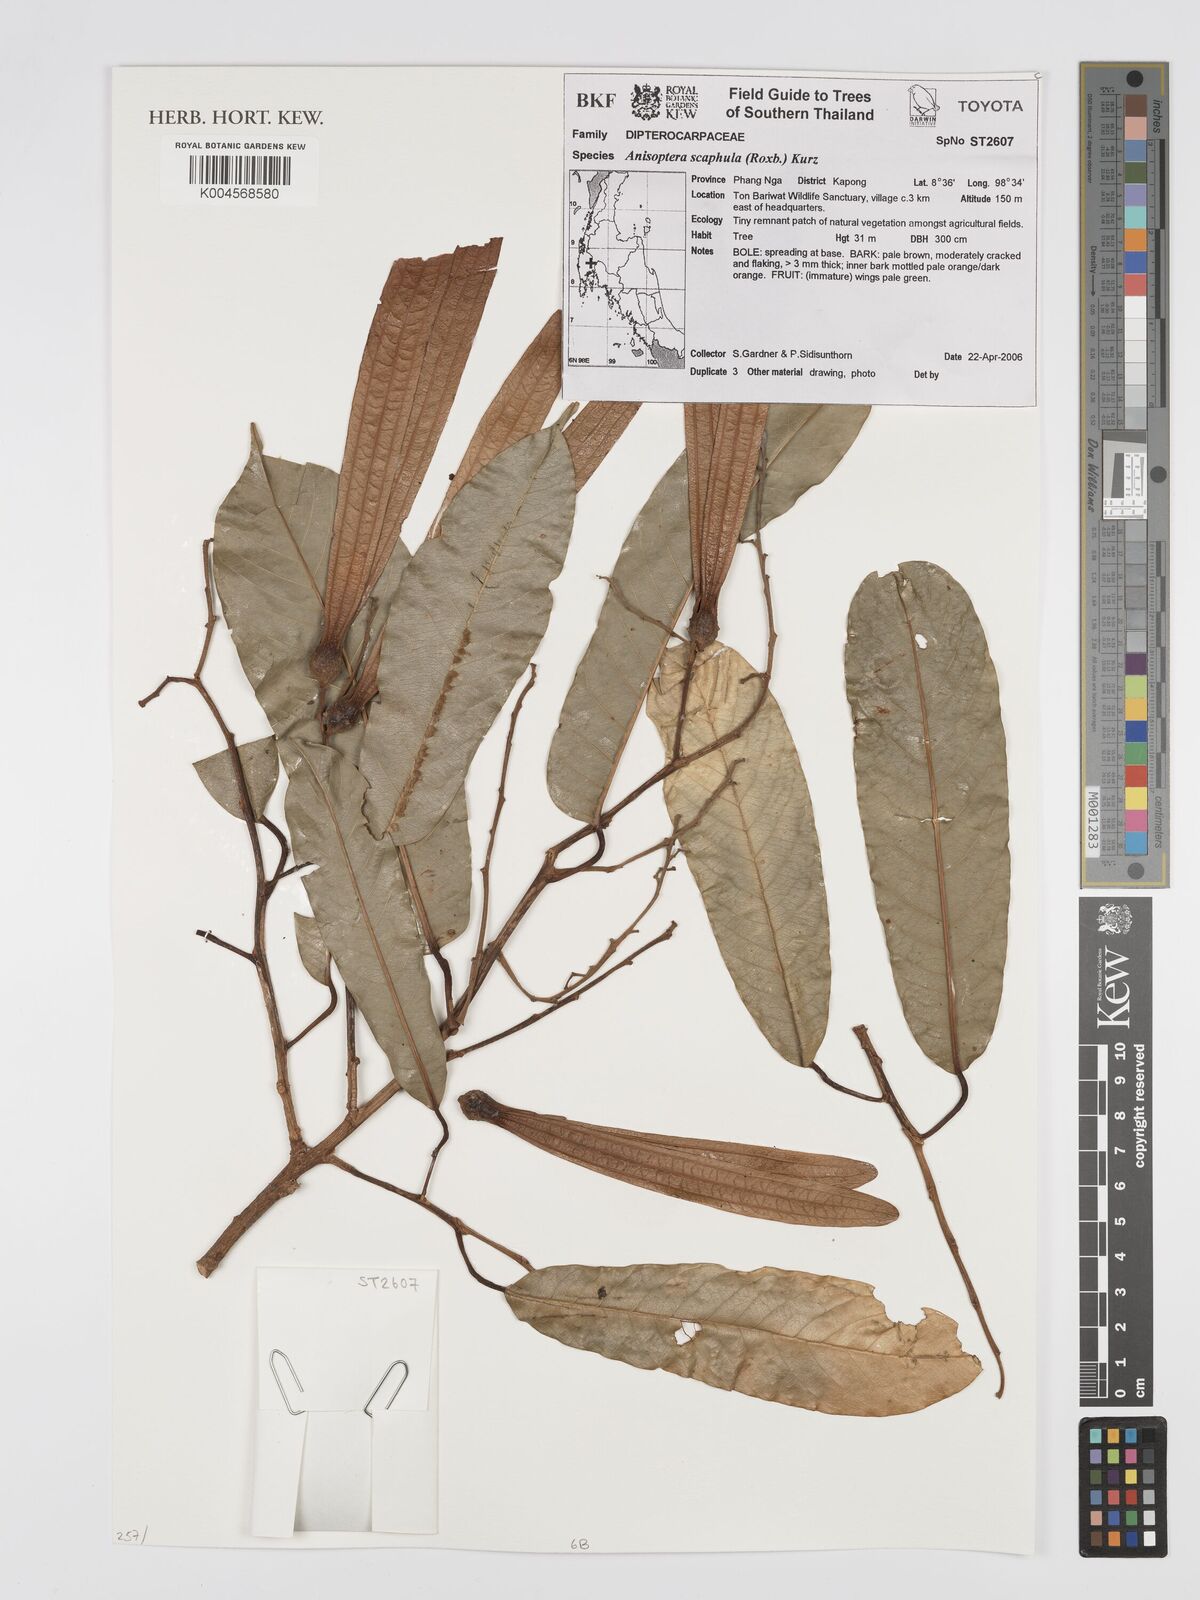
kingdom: Plantae
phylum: Tracheophyta
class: Magnoliopsida
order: Malvales
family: Dipterocarpaceae
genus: Anisoptera
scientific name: Anisoptera scaphula
